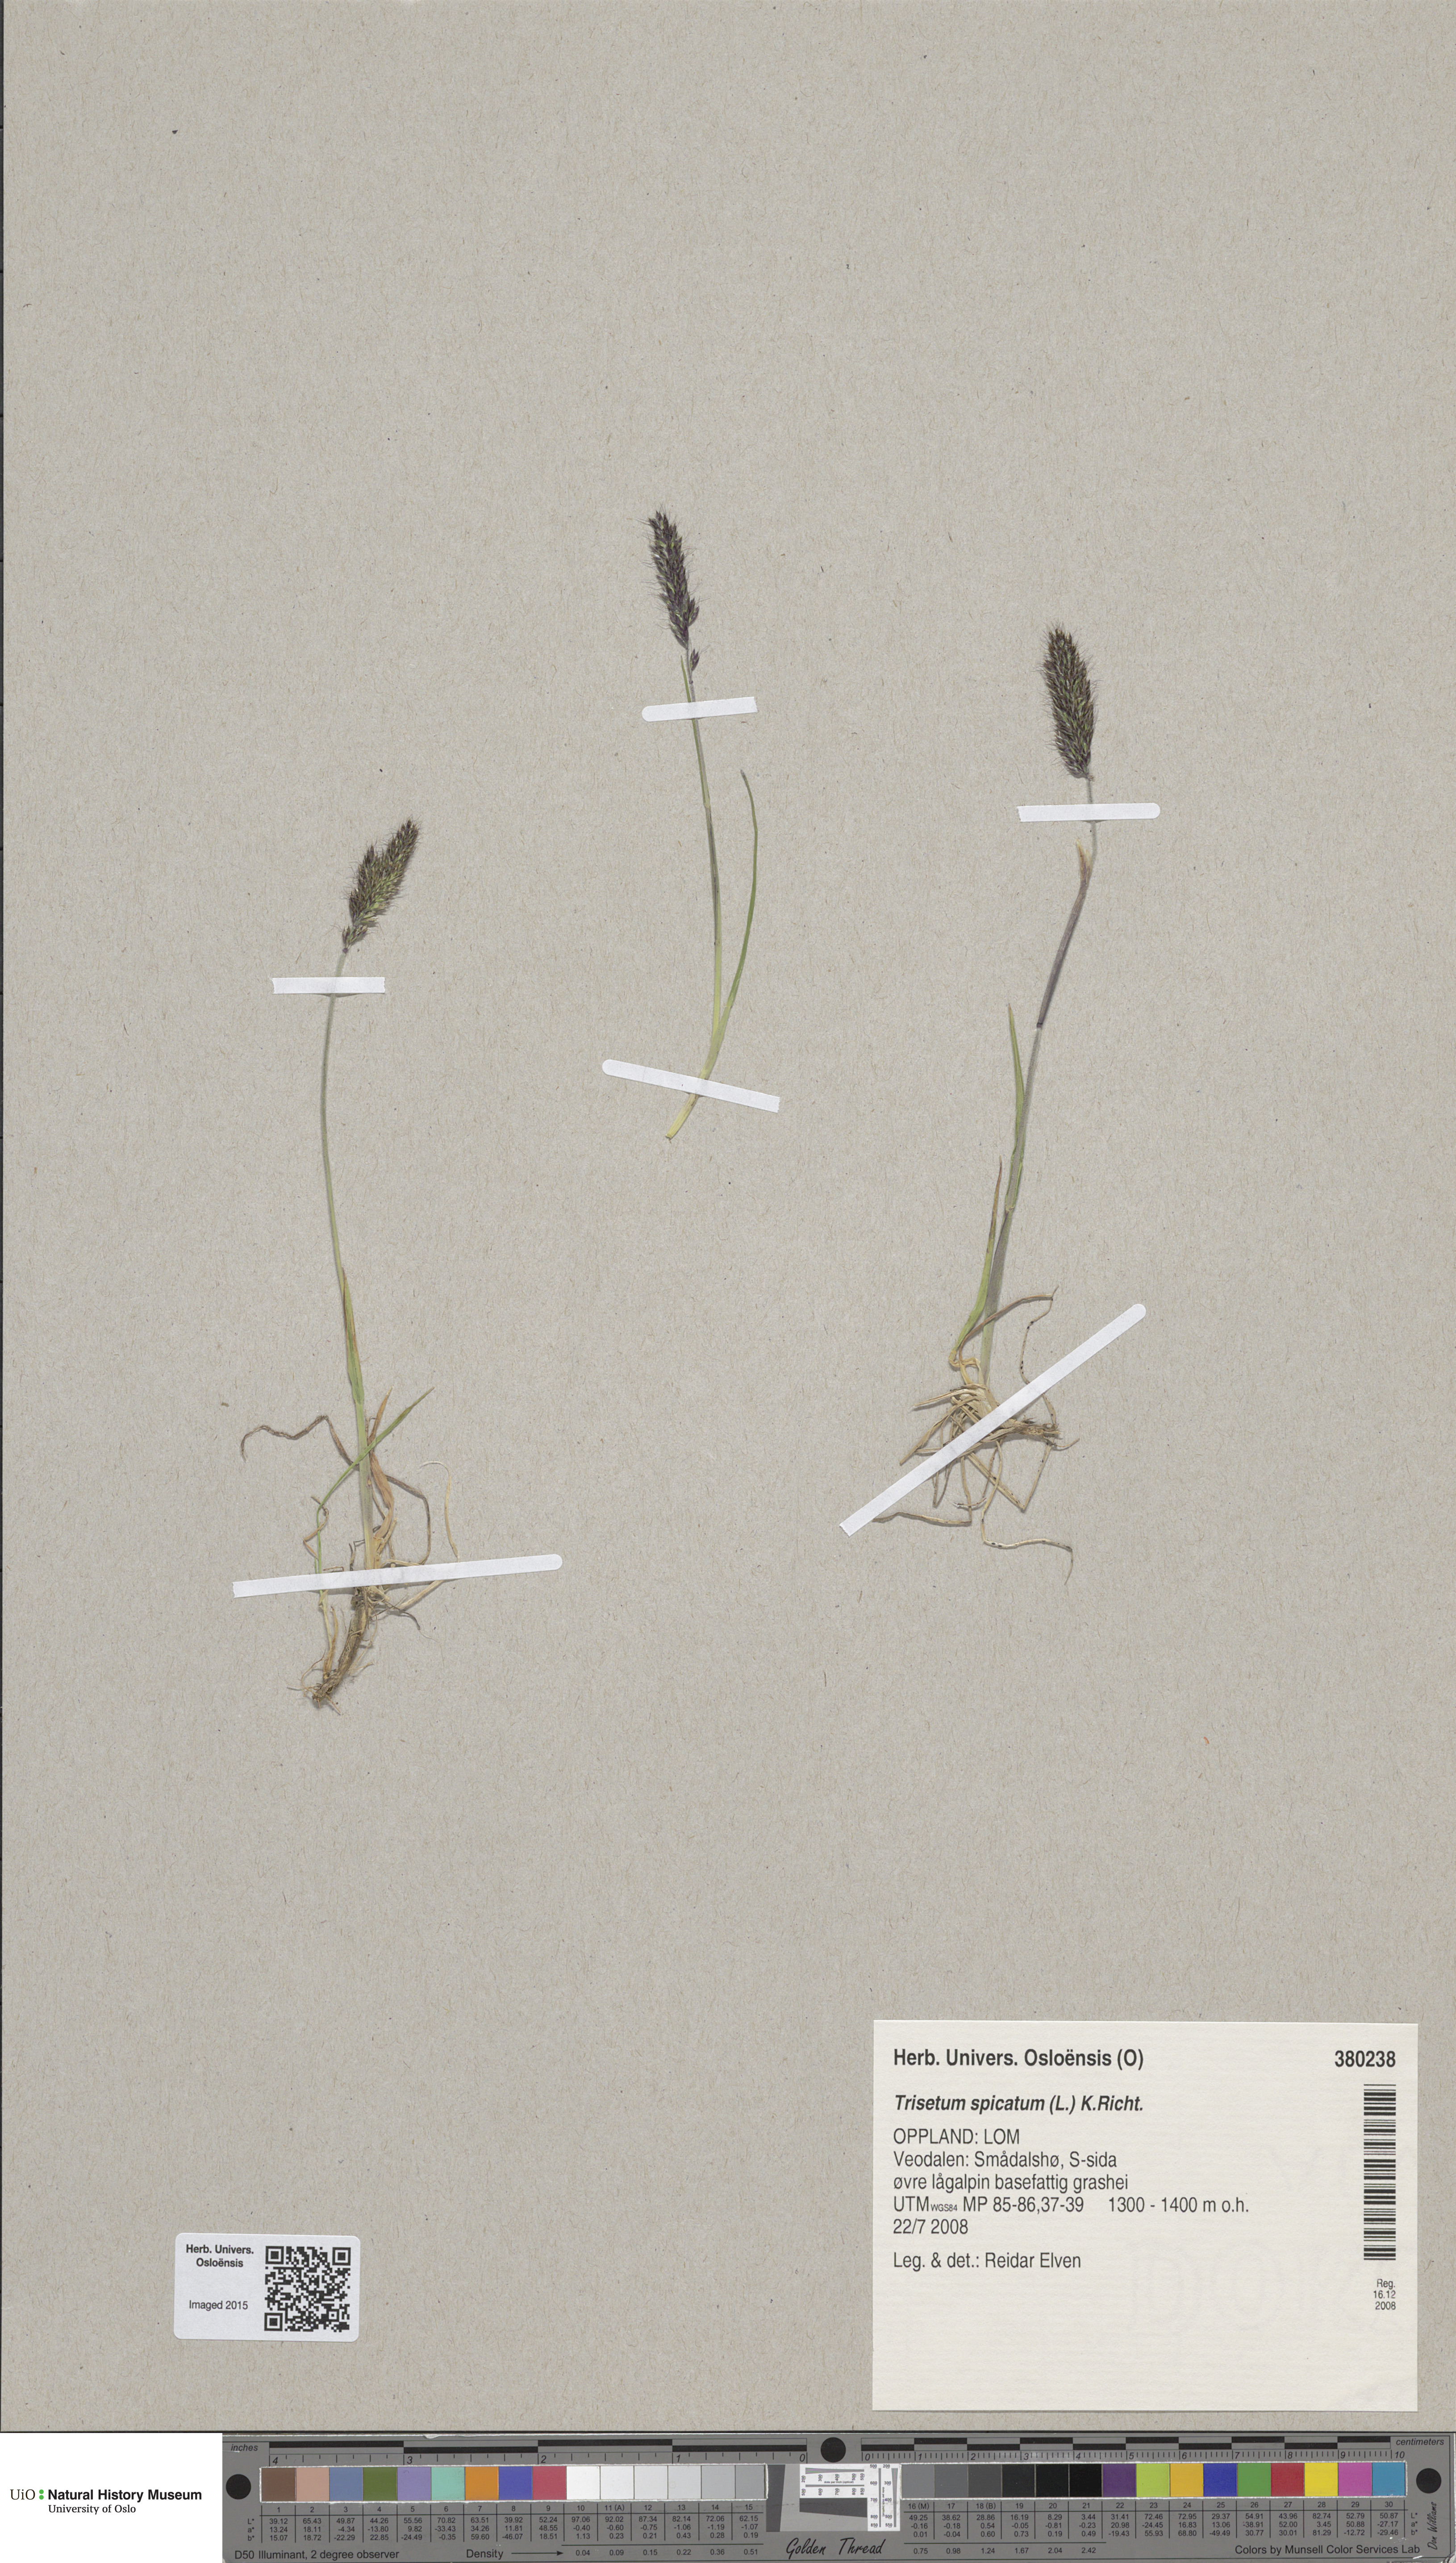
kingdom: Plantae
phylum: Tracheophyta
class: Liliopsida
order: Poales
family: Poaceae
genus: Koeleria
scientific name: Koeleria spicata
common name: Mountain trisetum
